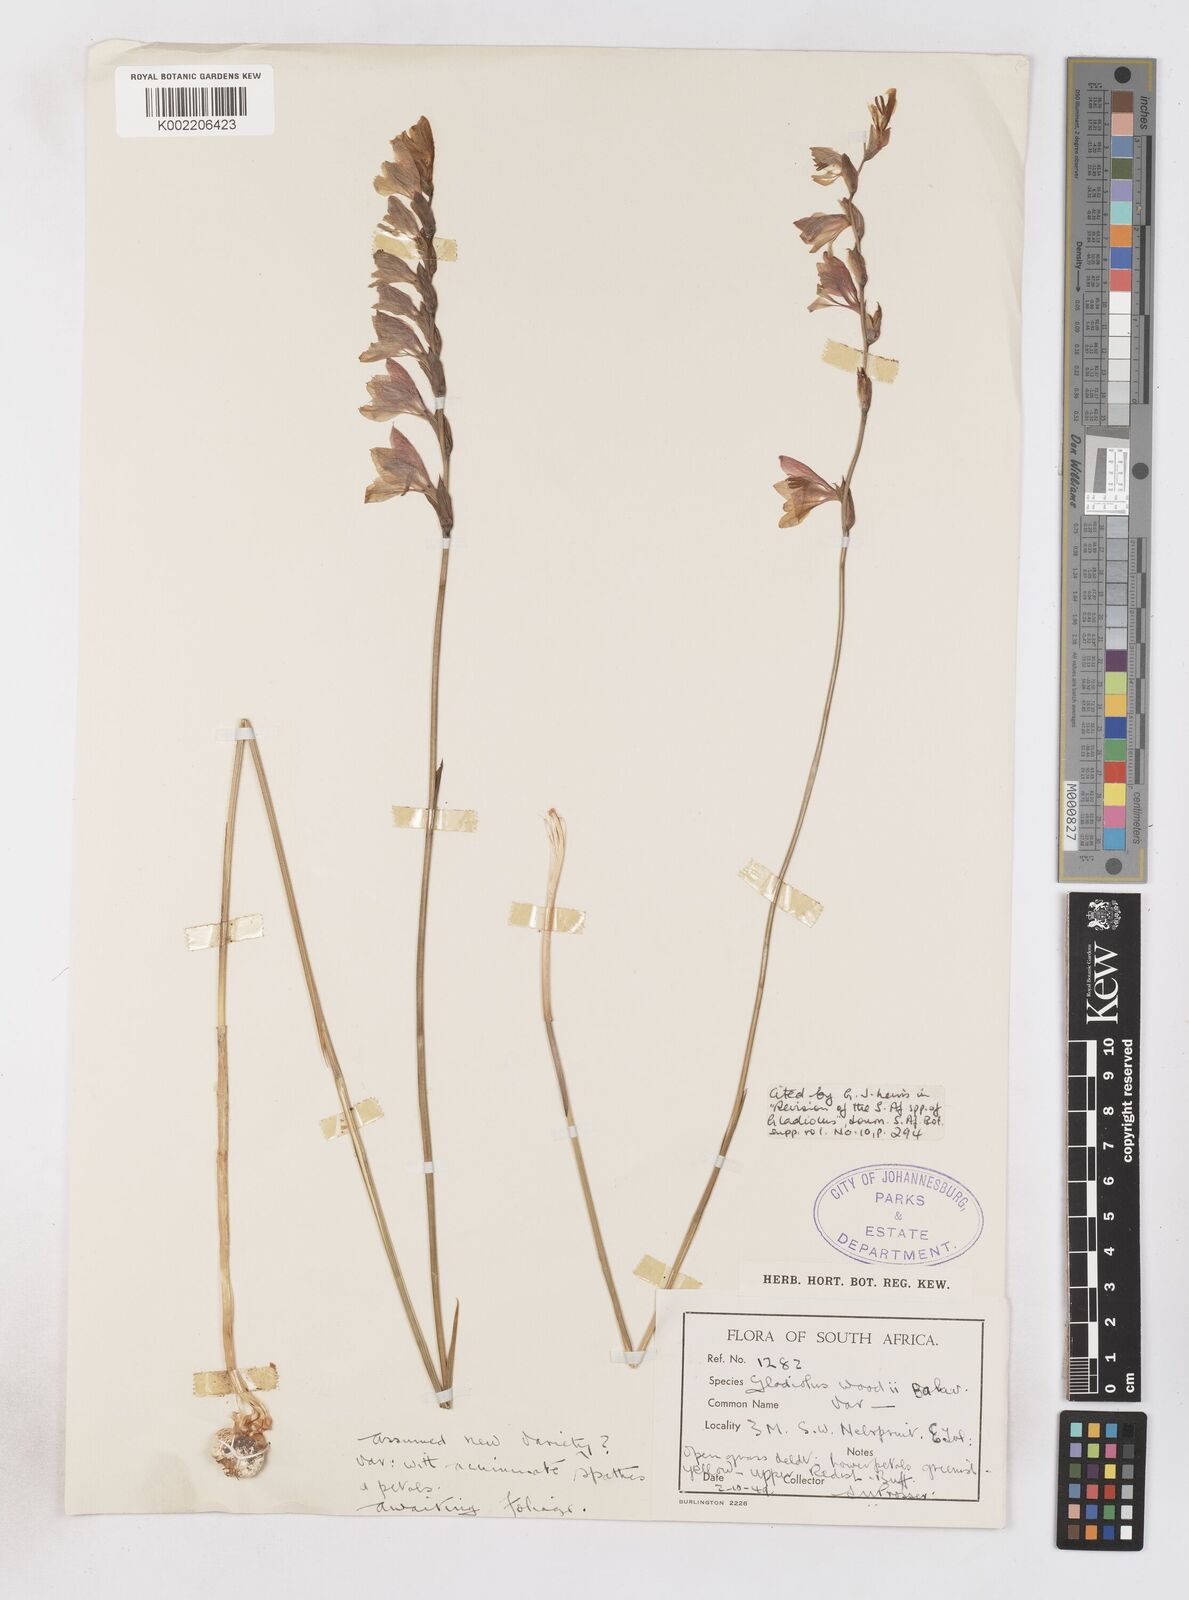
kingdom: Plantae
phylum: Tracheophyta
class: Liliopsida
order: Asparagales
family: Iridaceae
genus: Gladiolus
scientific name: Gladiolus woodii
